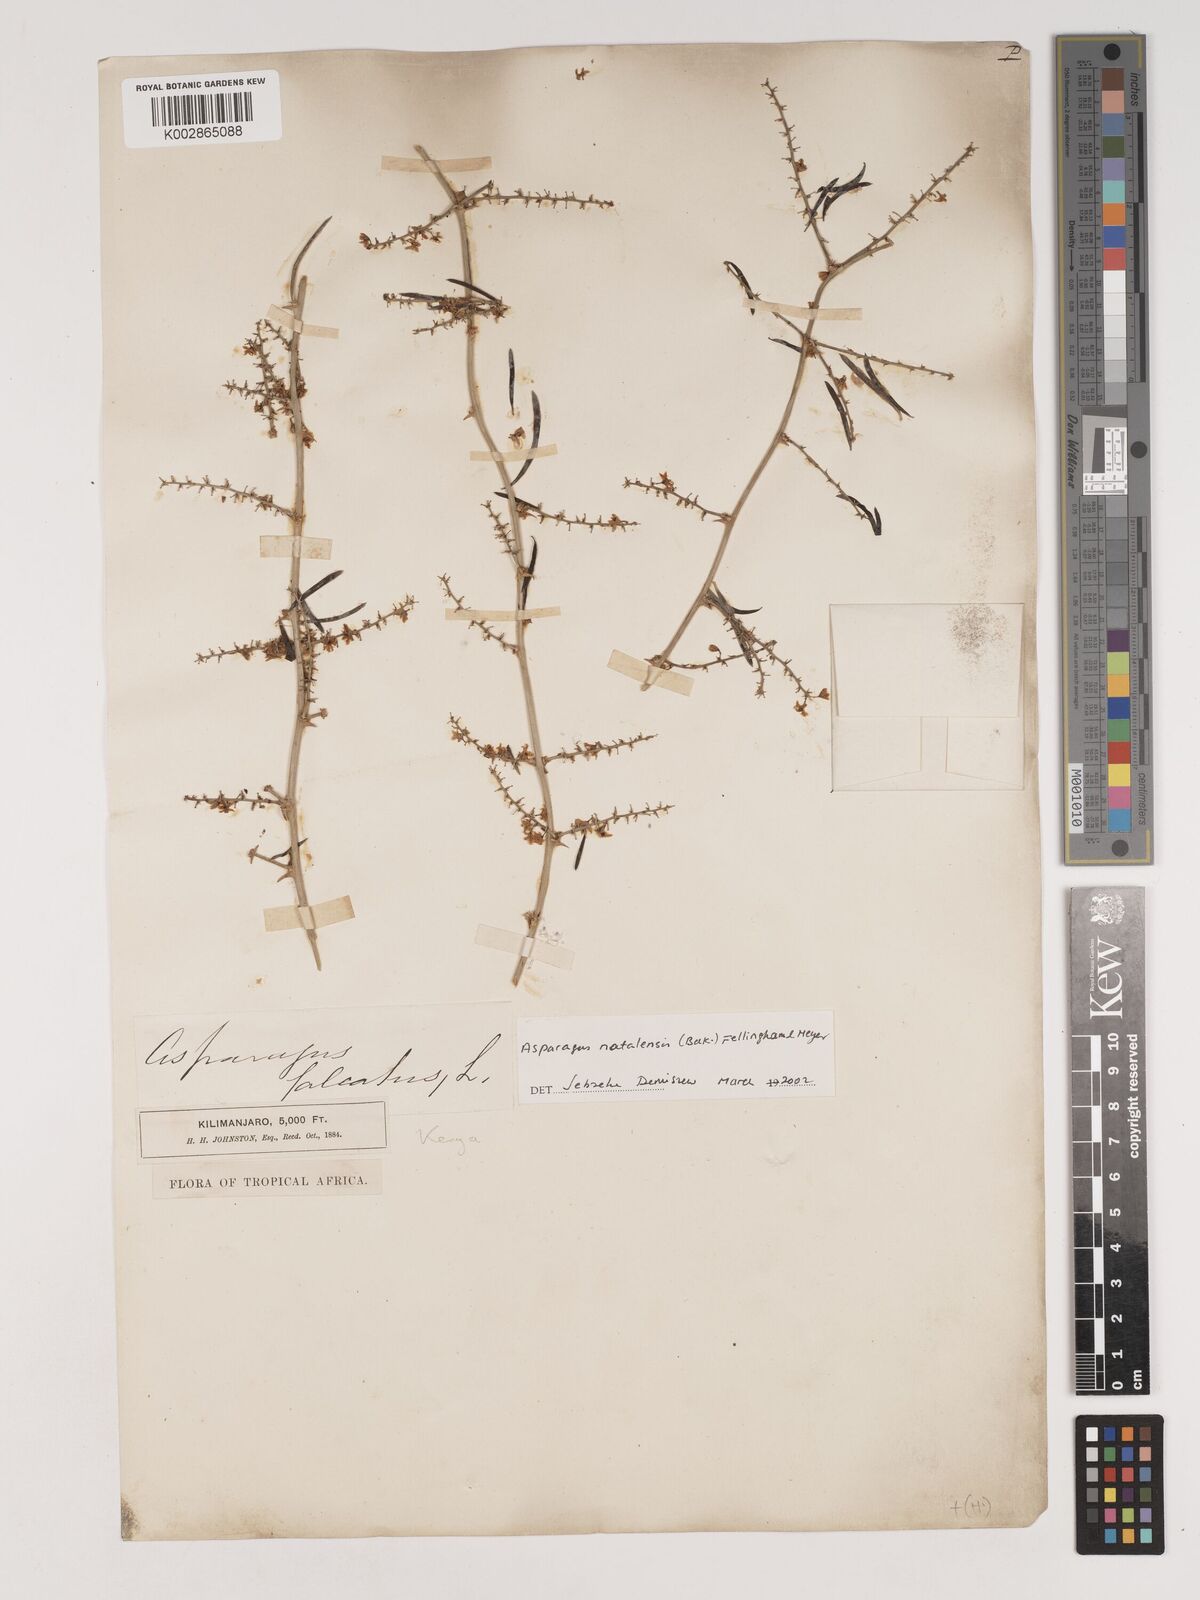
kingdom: Plantae
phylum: Tracheophyta
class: Liliopsida
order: Asparagales
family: Asparagaceae
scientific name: Asparagaceae
